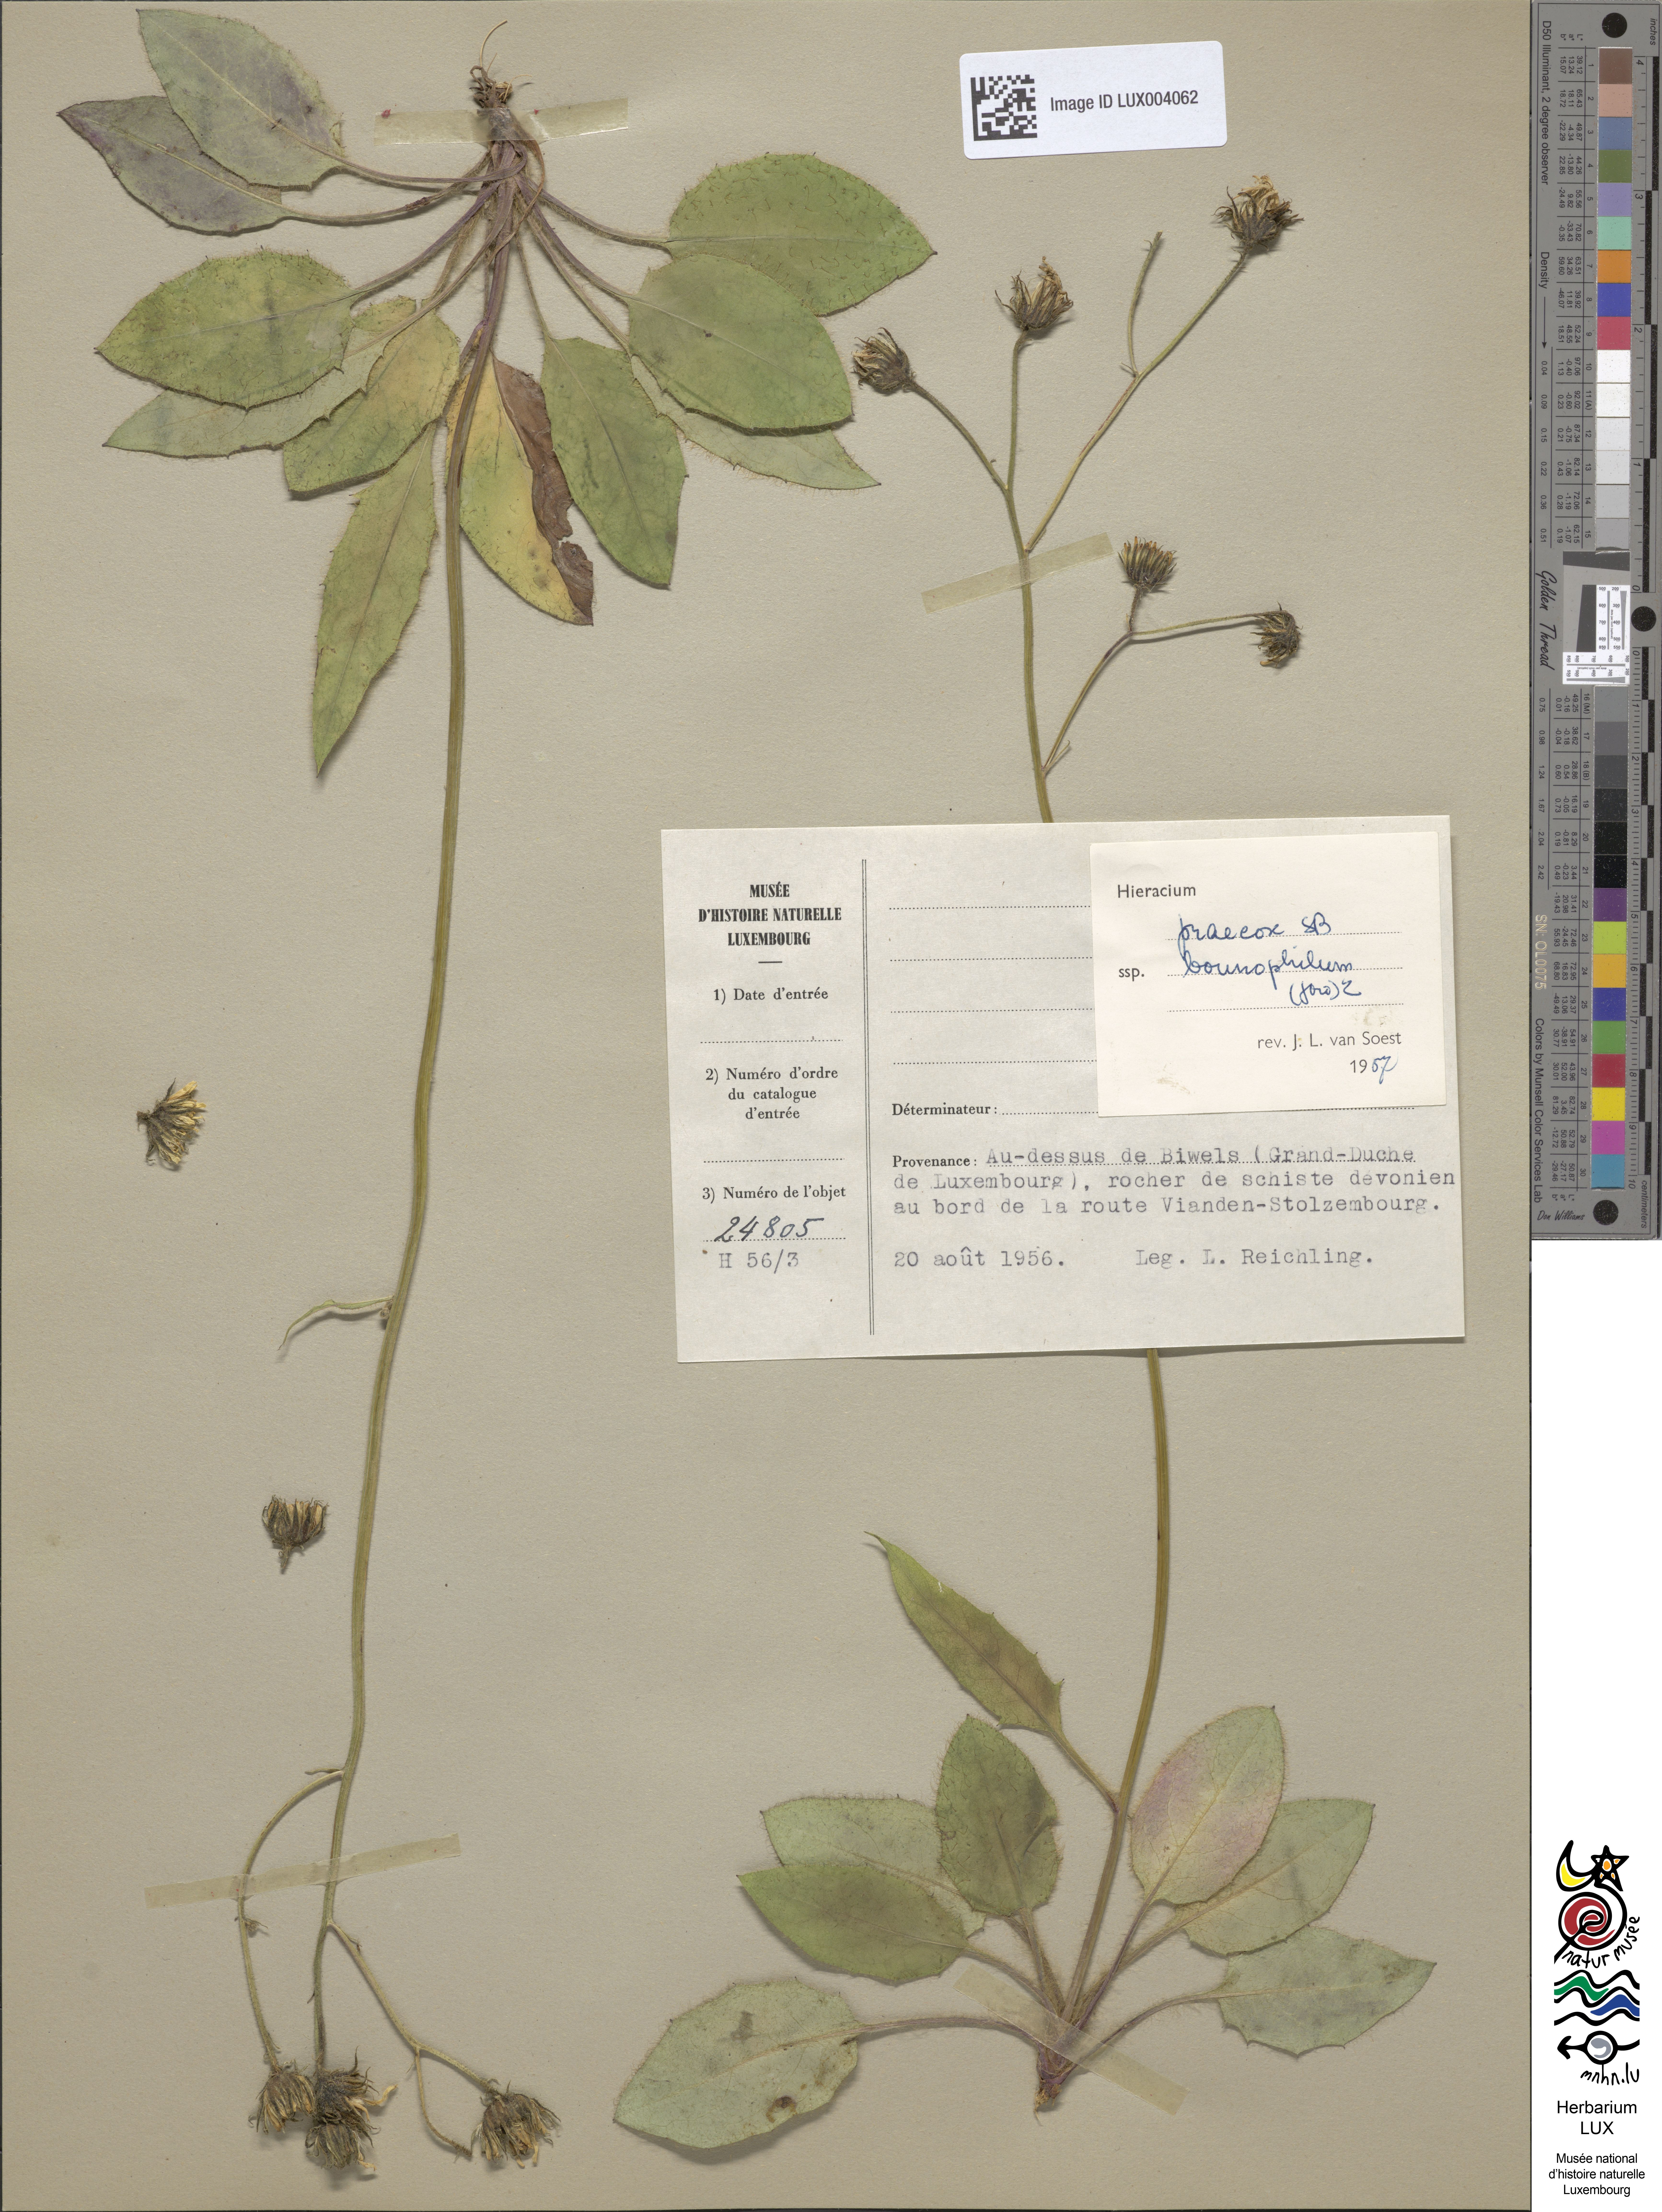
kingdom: Plantae
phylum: Tracheophyta
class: Magnoliopsida
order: Asterales
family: Asteraceae
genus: Hieracium
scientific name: Hieracium glaucinum
